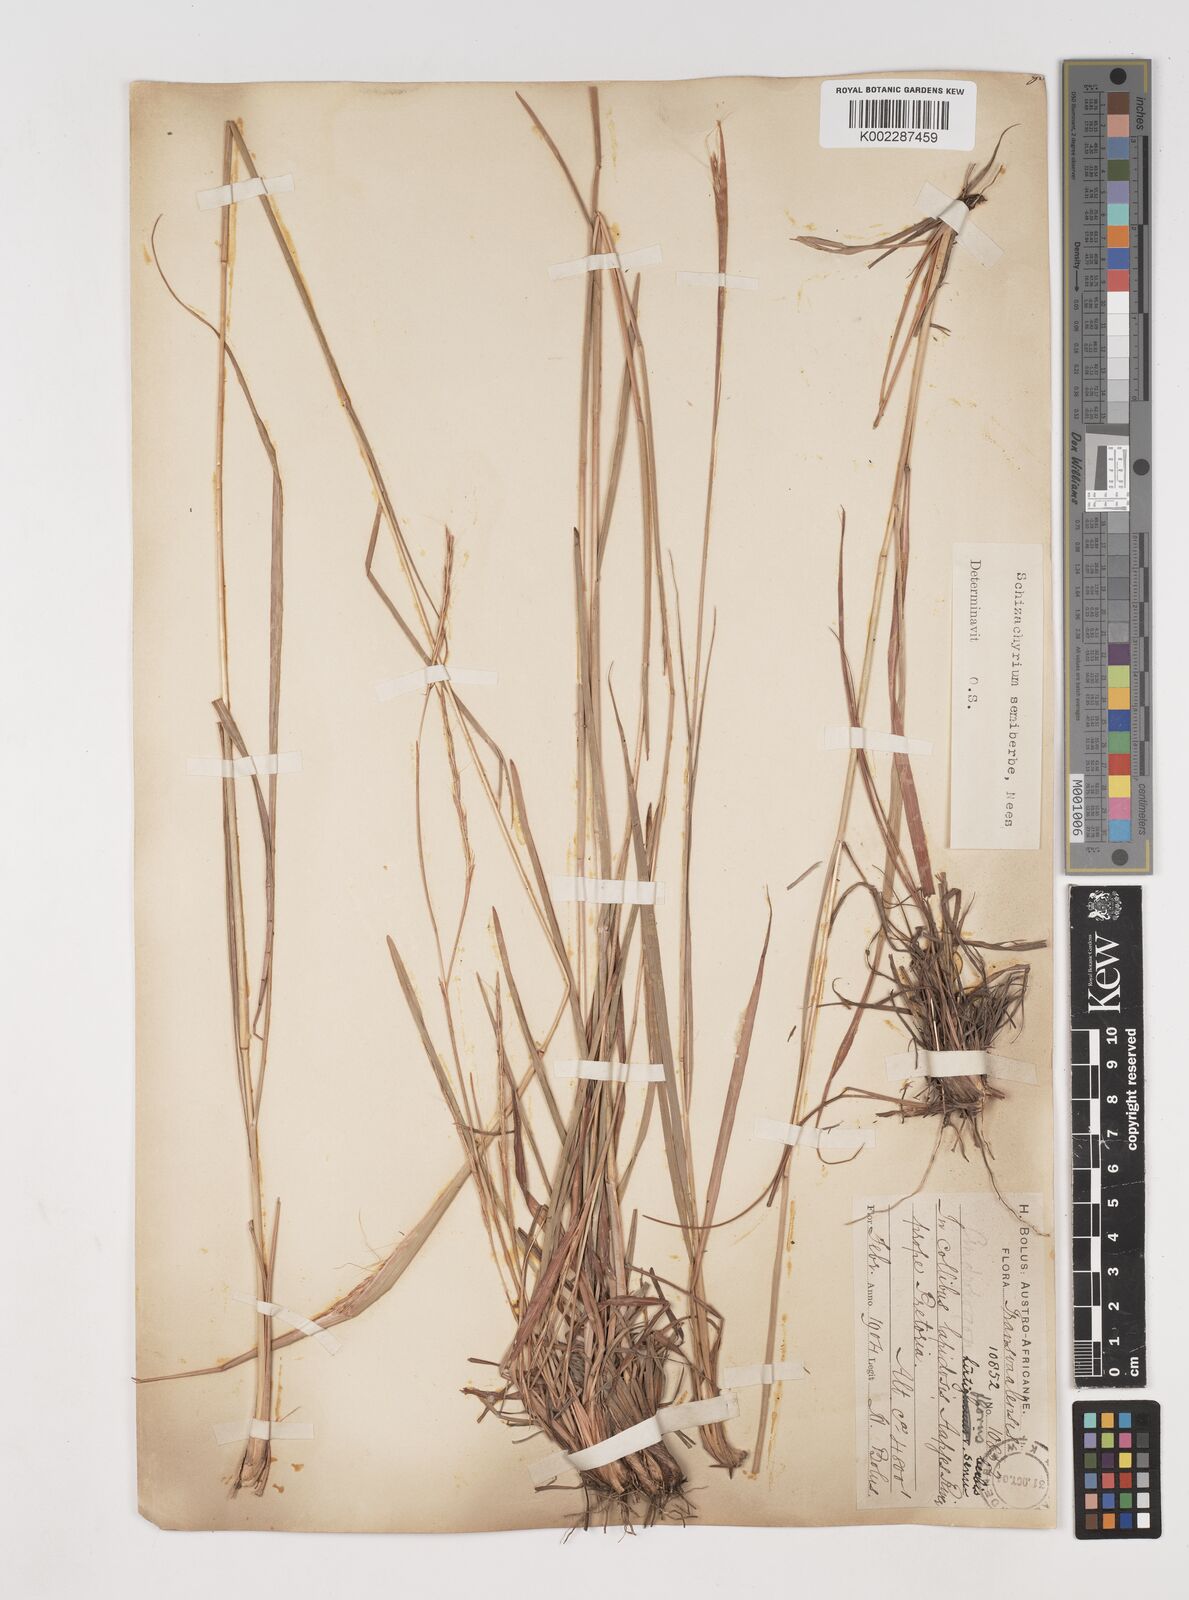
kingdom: Plantae
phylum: Tracheophyta
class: Liliopsida
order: Poales
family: Poaceae
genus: Schizachyrium
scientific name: Schizachyrium sanguineum
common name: Crimson bluestem
